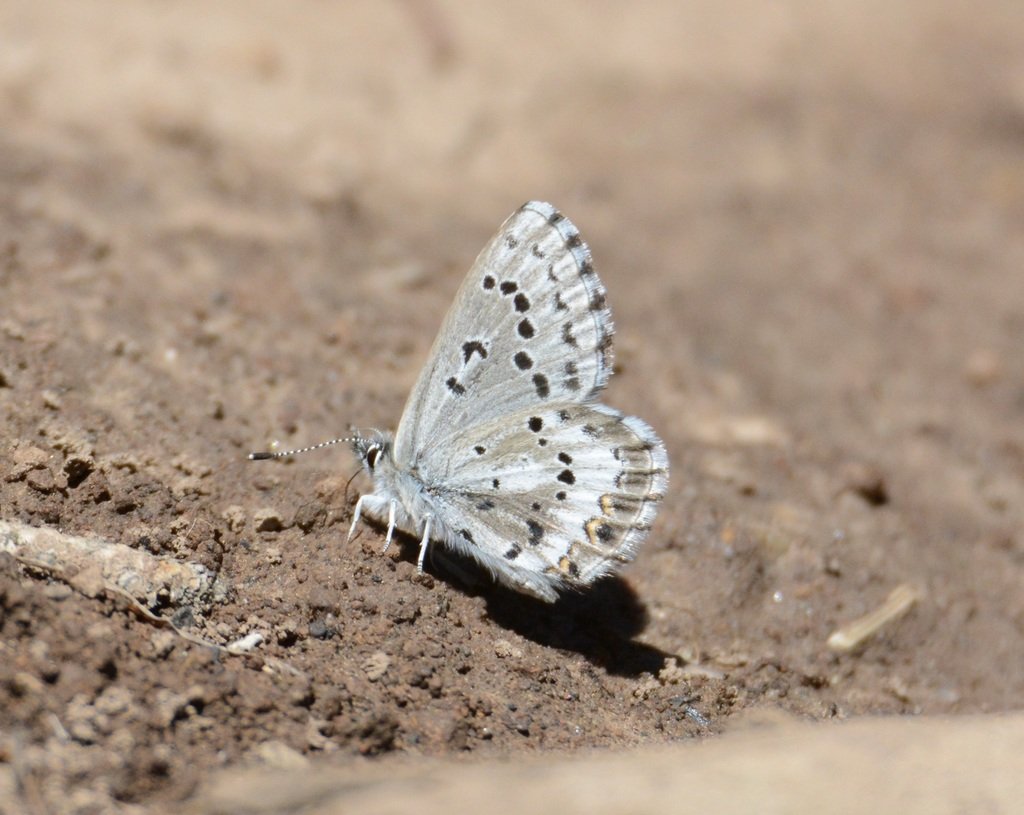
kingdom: Animalia
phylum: Arthropoda
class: Insecta
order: Lepidoptera
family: Lycaenidae
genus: Glaucopsyche
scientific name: Glaucopsyche piasus
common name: Arrowhead Blue
